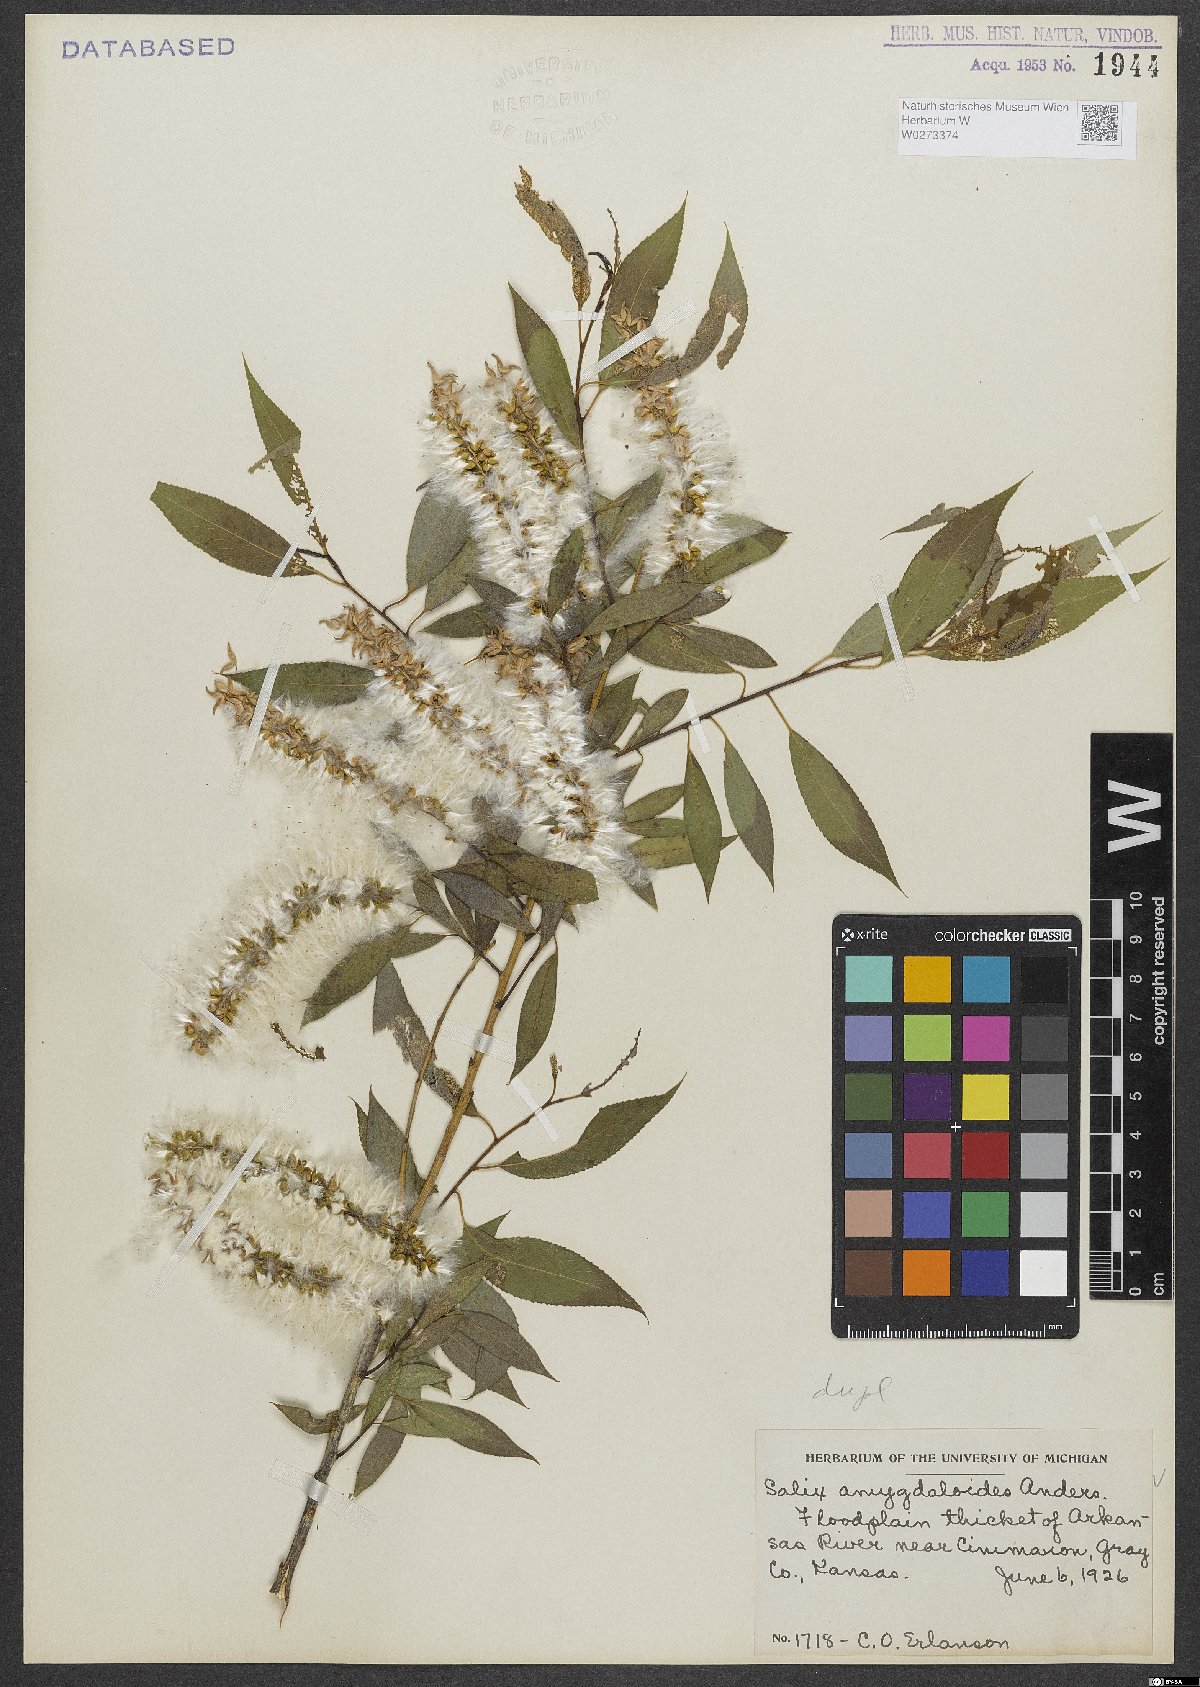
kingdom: Plantae
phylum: Tracheophyta
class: Magnoliopsida
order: Malpighiales
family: Salicaceae
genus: Salix
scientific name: Salix amygdaloides
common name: Peach leaf willow
